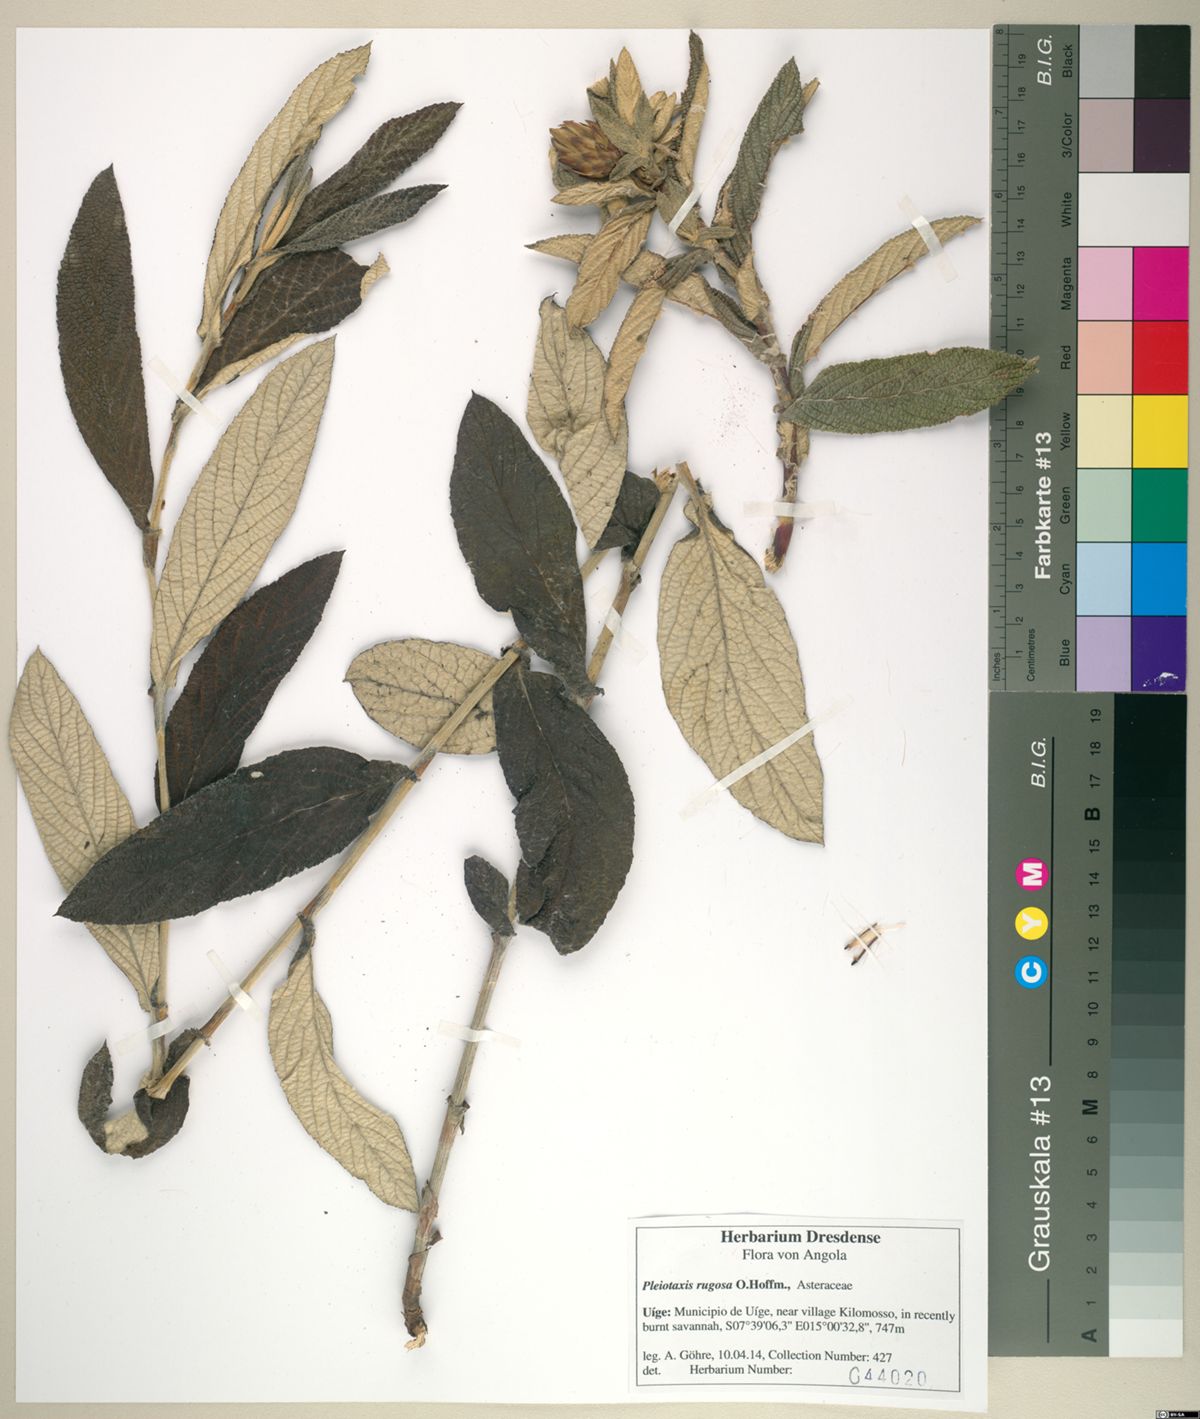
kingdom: Plantae
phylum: Tracheophyta
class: Magnoliopsida
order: Asterales
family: Asteraceae
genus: Pleiotaxis
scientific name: Pleiotaxis rugosa
